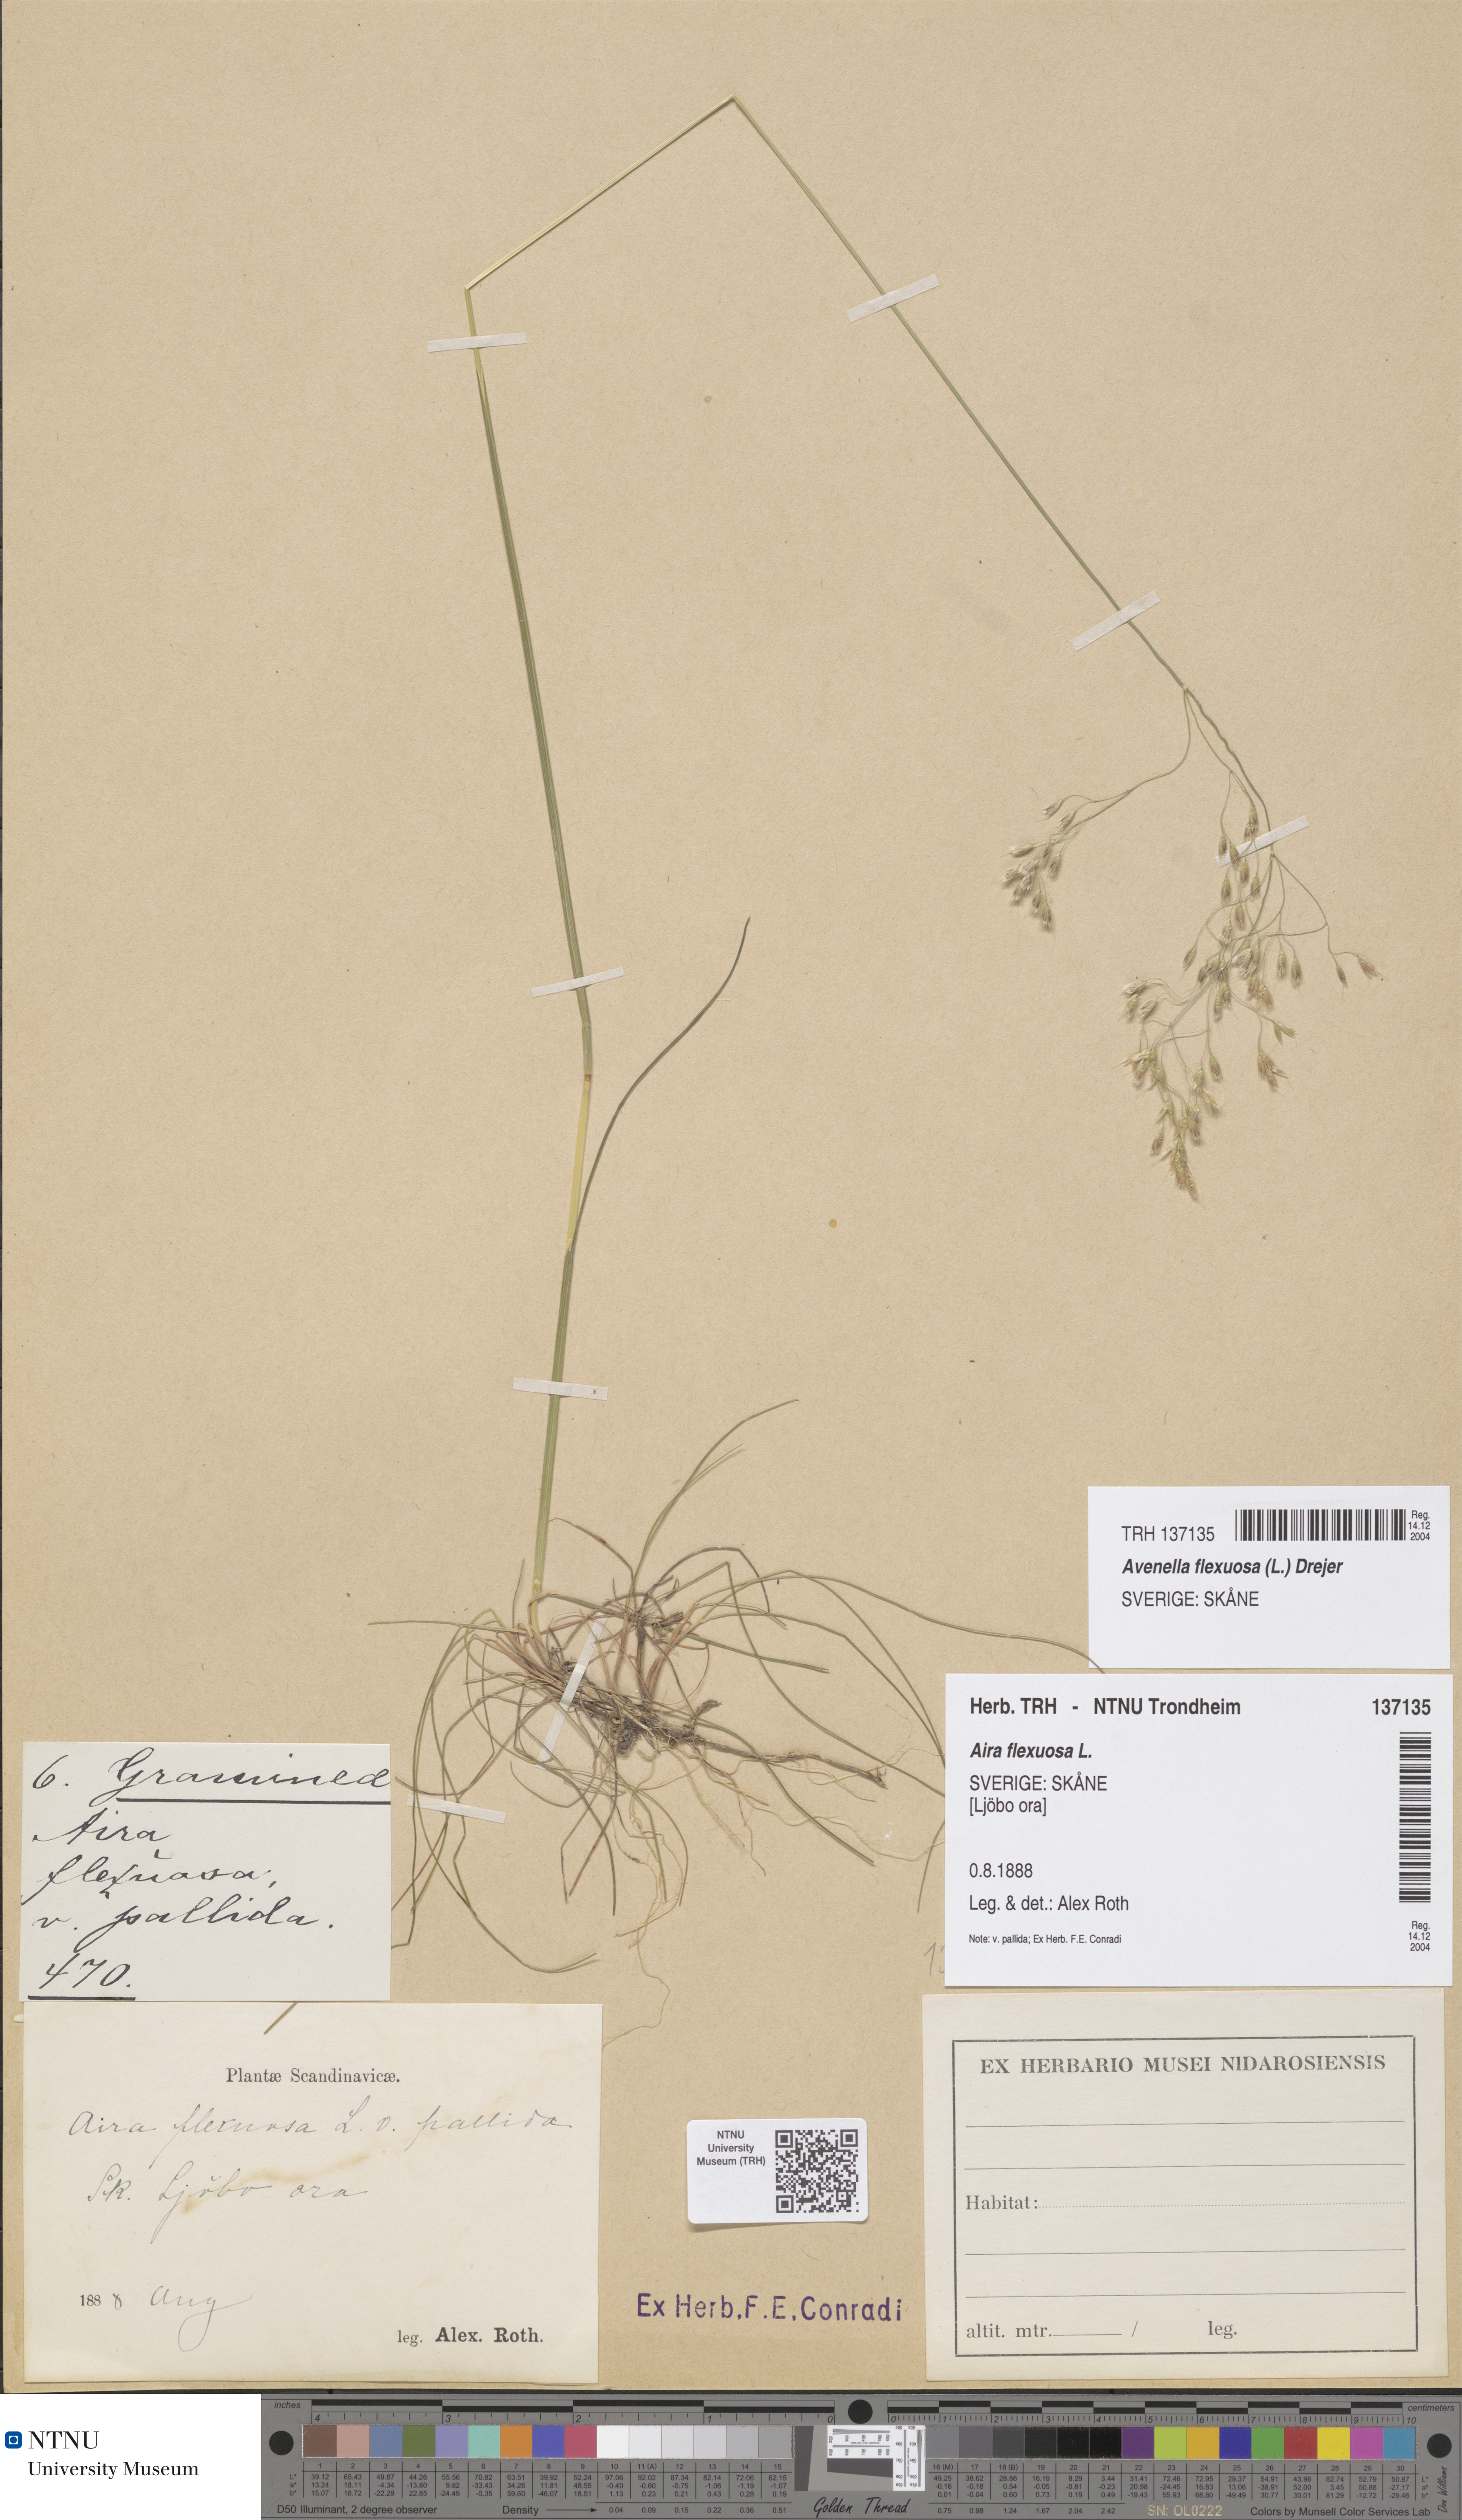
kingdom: Plantae
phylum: Tracheophyta
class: Liliopsida
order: Poales
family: Poaceae
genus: Avenella
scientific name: Avenella flexuosa
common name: Wavy hairgrass
